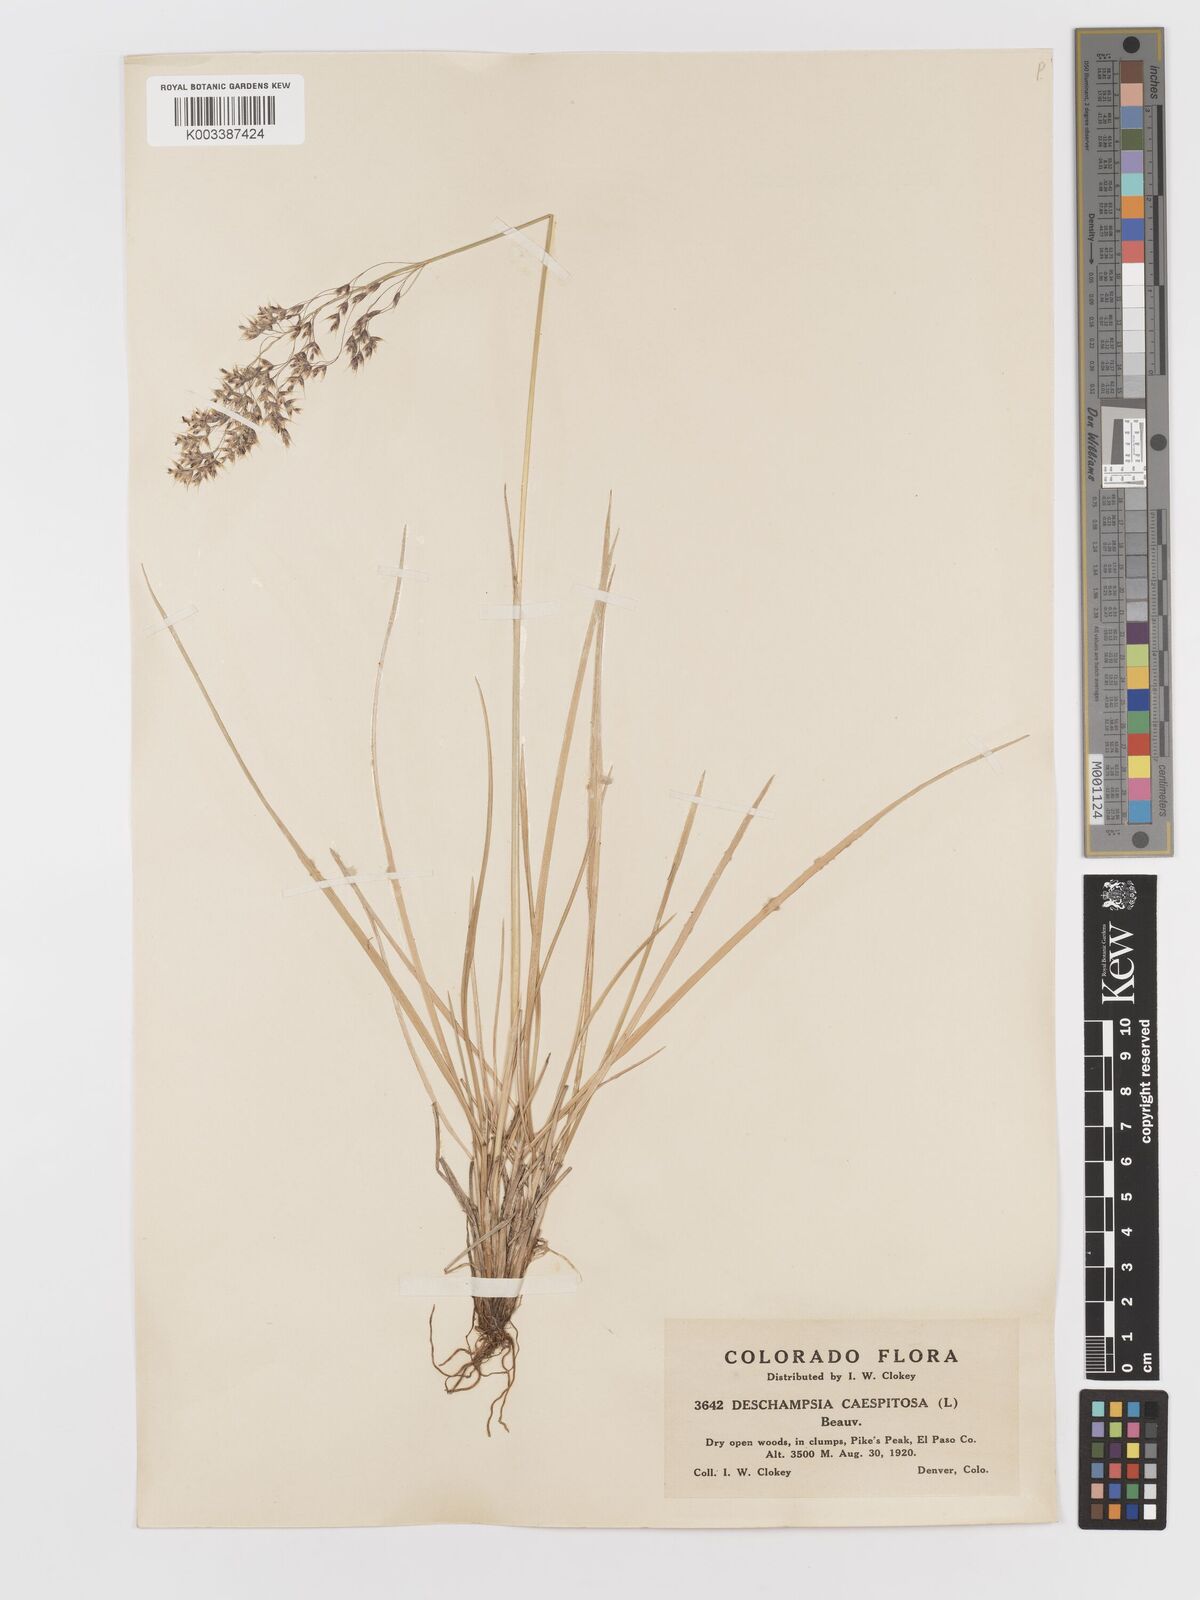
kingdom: Plantae
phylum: Tracheophyta
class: Liliopsida
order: Poales
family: Poaceae
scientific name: Poaceae
